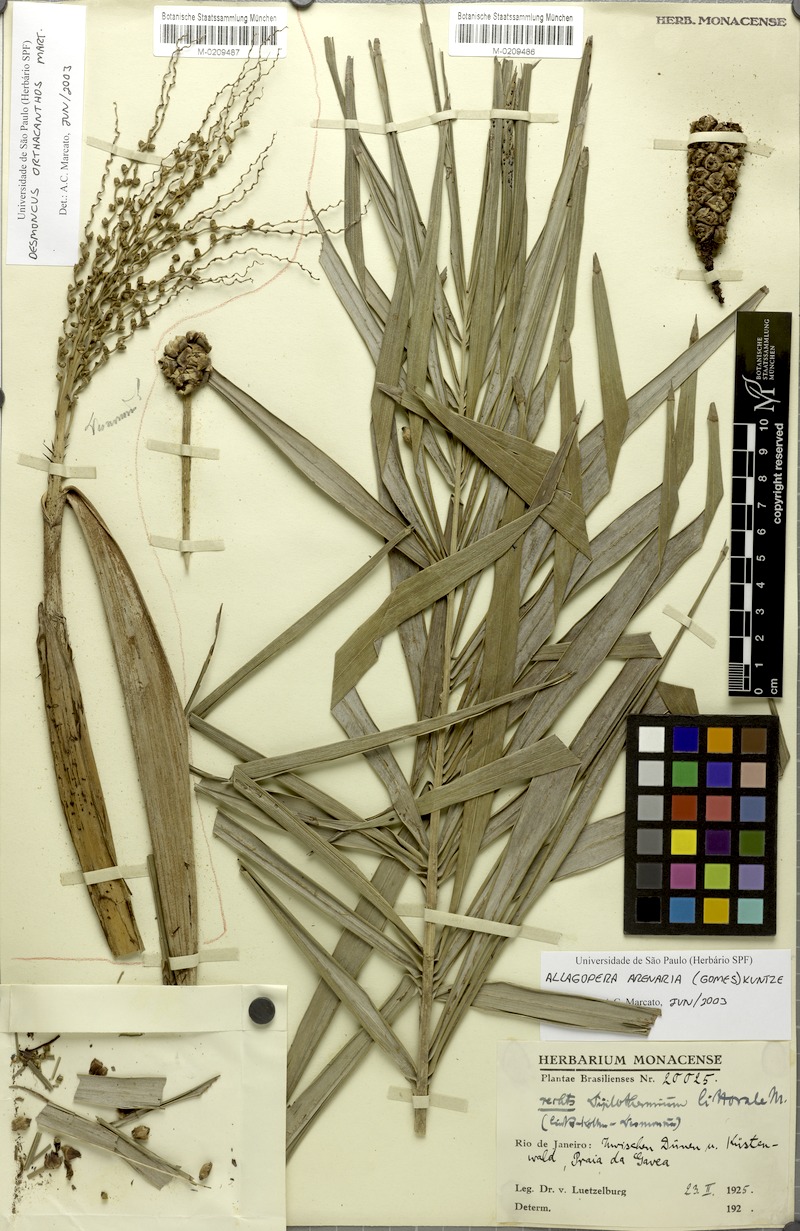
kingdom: Plantae
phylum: Tracheophyta
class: Liliopsida
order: Arecales
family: Arecaceae
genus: Desmoncus
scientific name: Desmoncus orthacanthos
